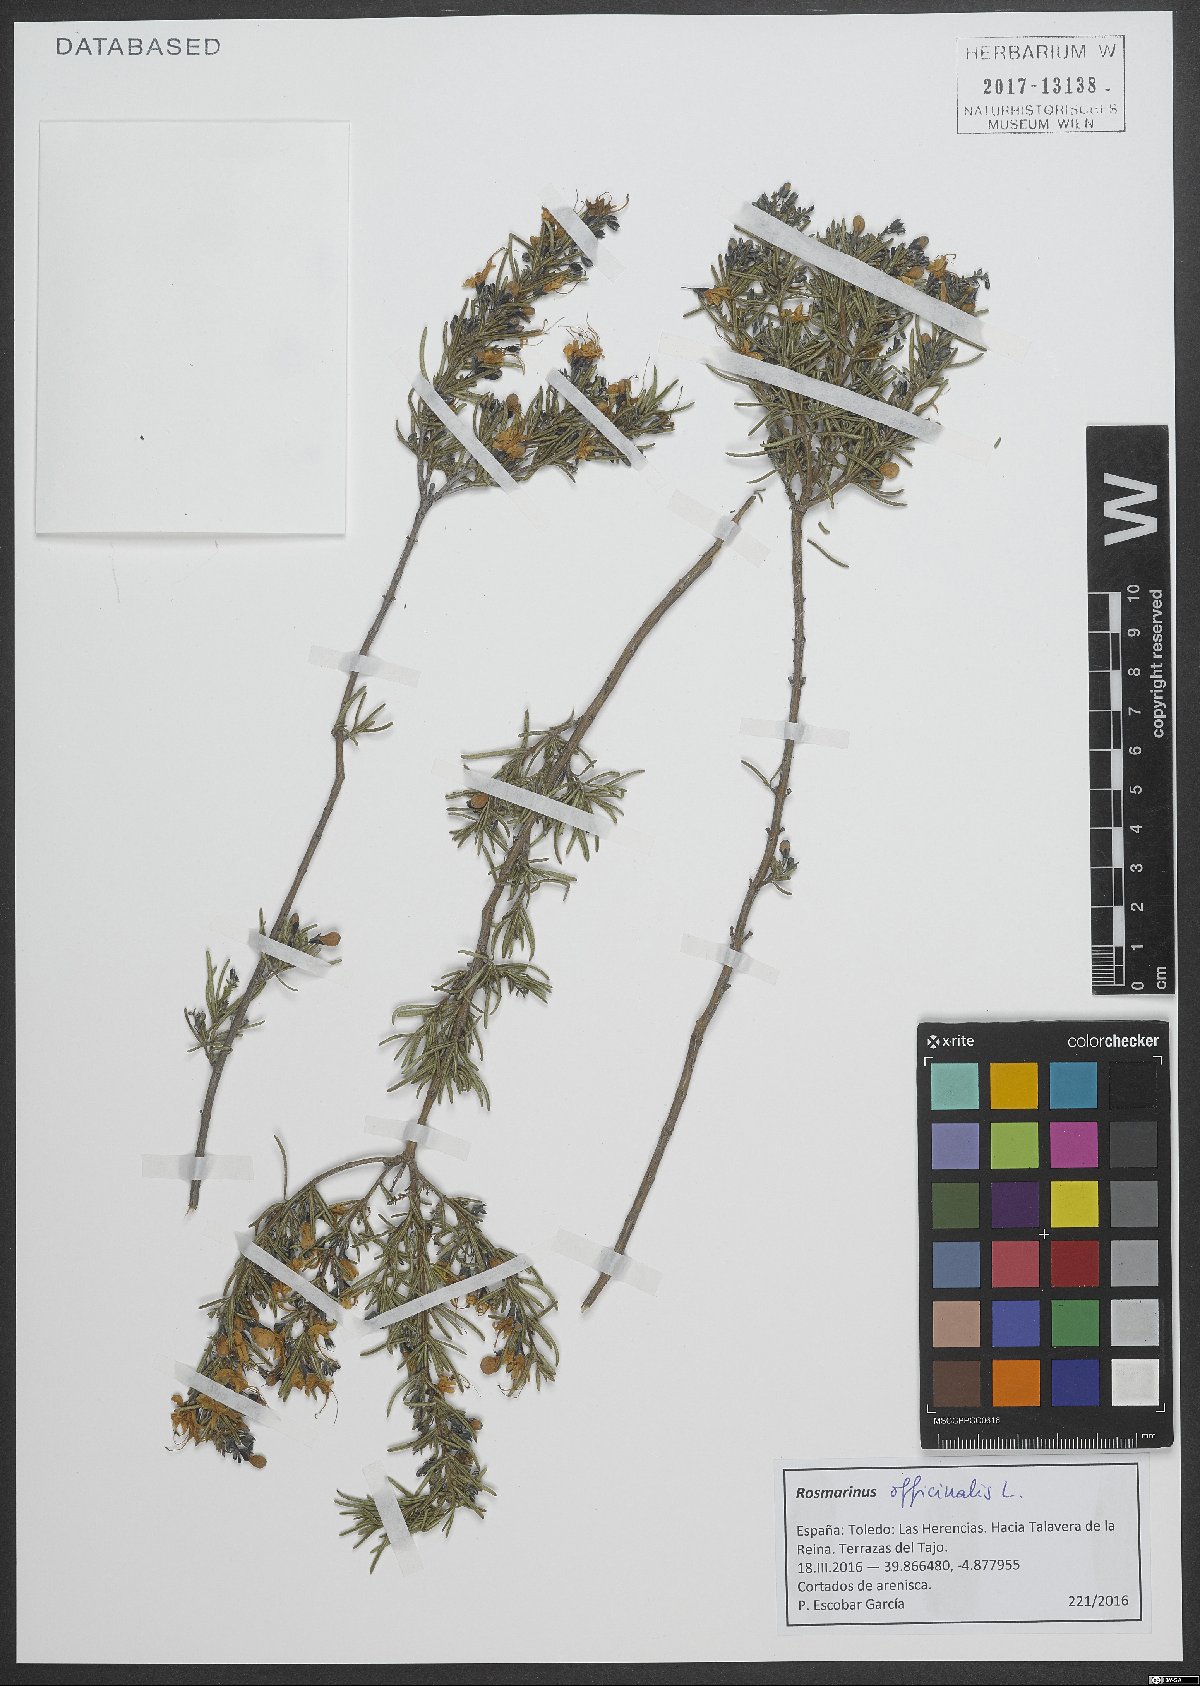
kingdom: Plantae
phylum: Tracheophyta
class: Magnoliopsida
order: Lamiales
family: Lamiaceae
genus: Salvia
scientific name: Salvia rosmarinus
